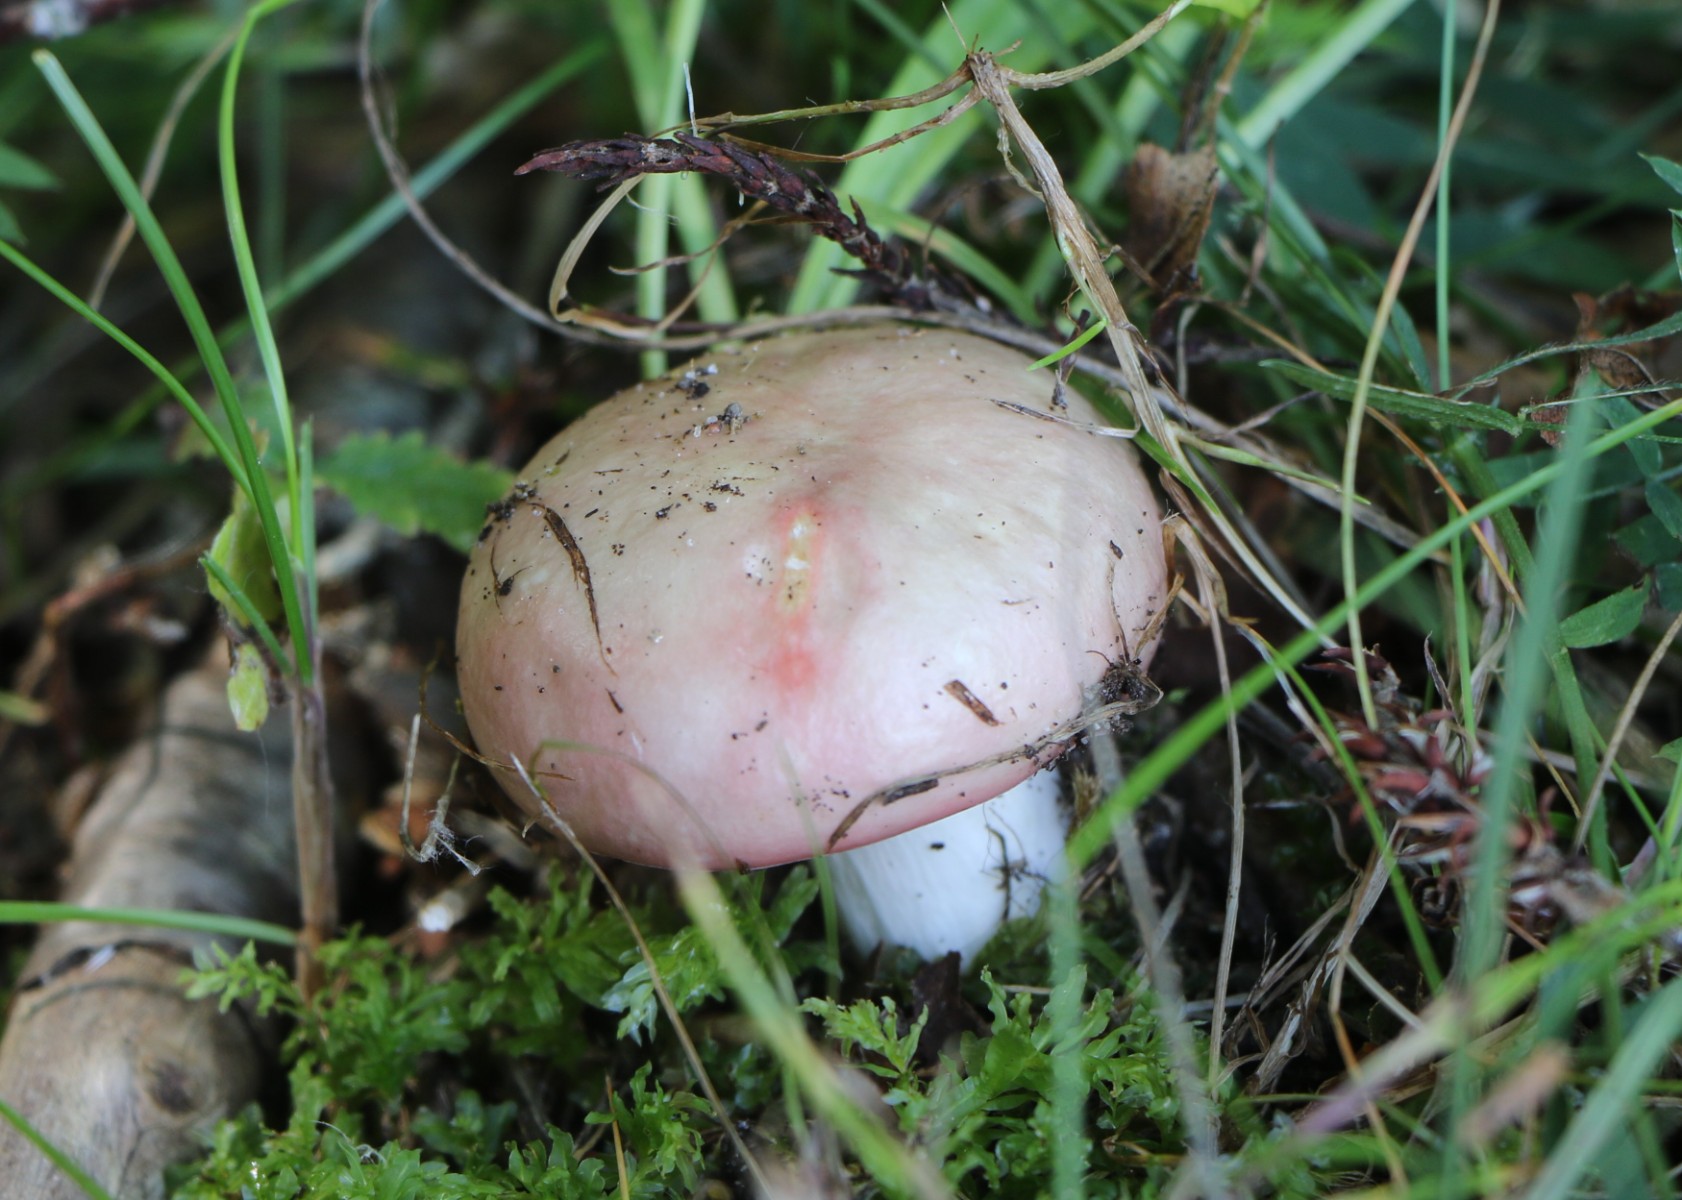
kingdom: Fungi
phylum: Basidiomycota
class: Agaricomycetes
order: Russulales
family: Russulaceae
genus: Russula
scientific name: Russula
